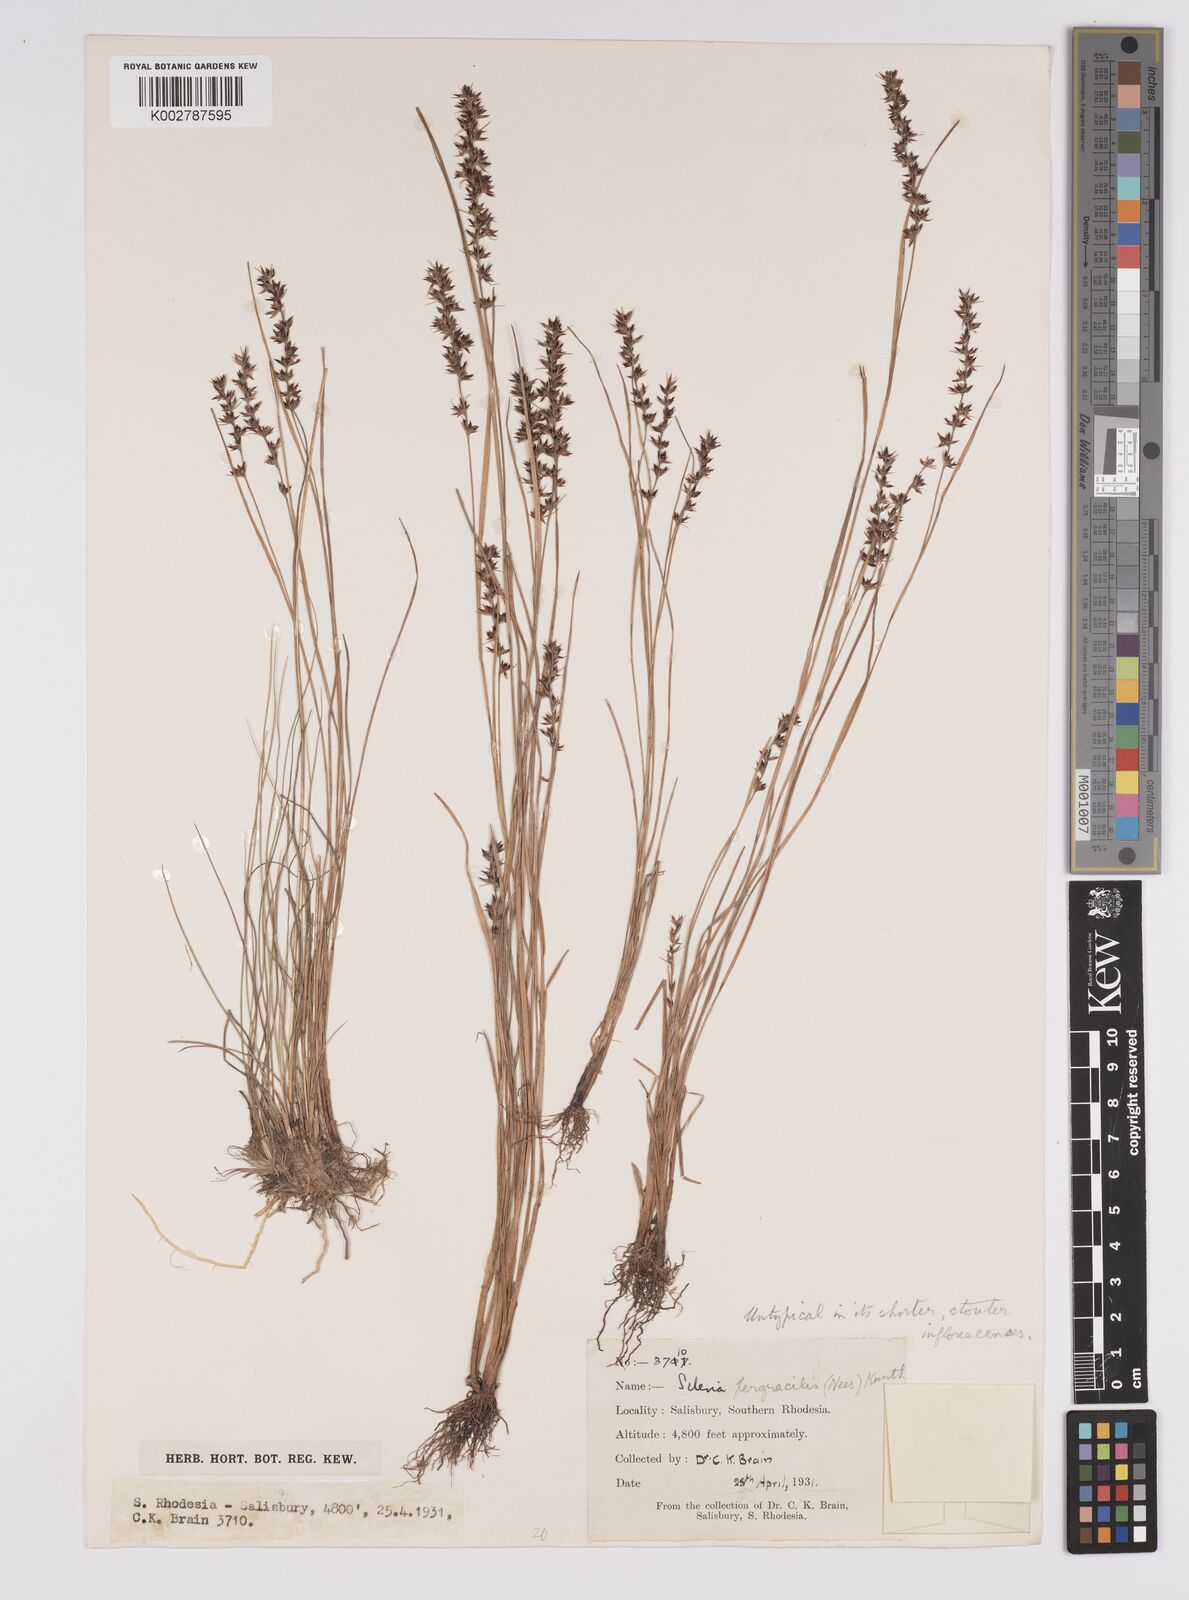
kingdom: Plantae
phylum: Tracheophyta
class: Liliopsida
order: Poales
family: Cyperaceae
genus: Scleria
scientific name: Scleria pergracilis
